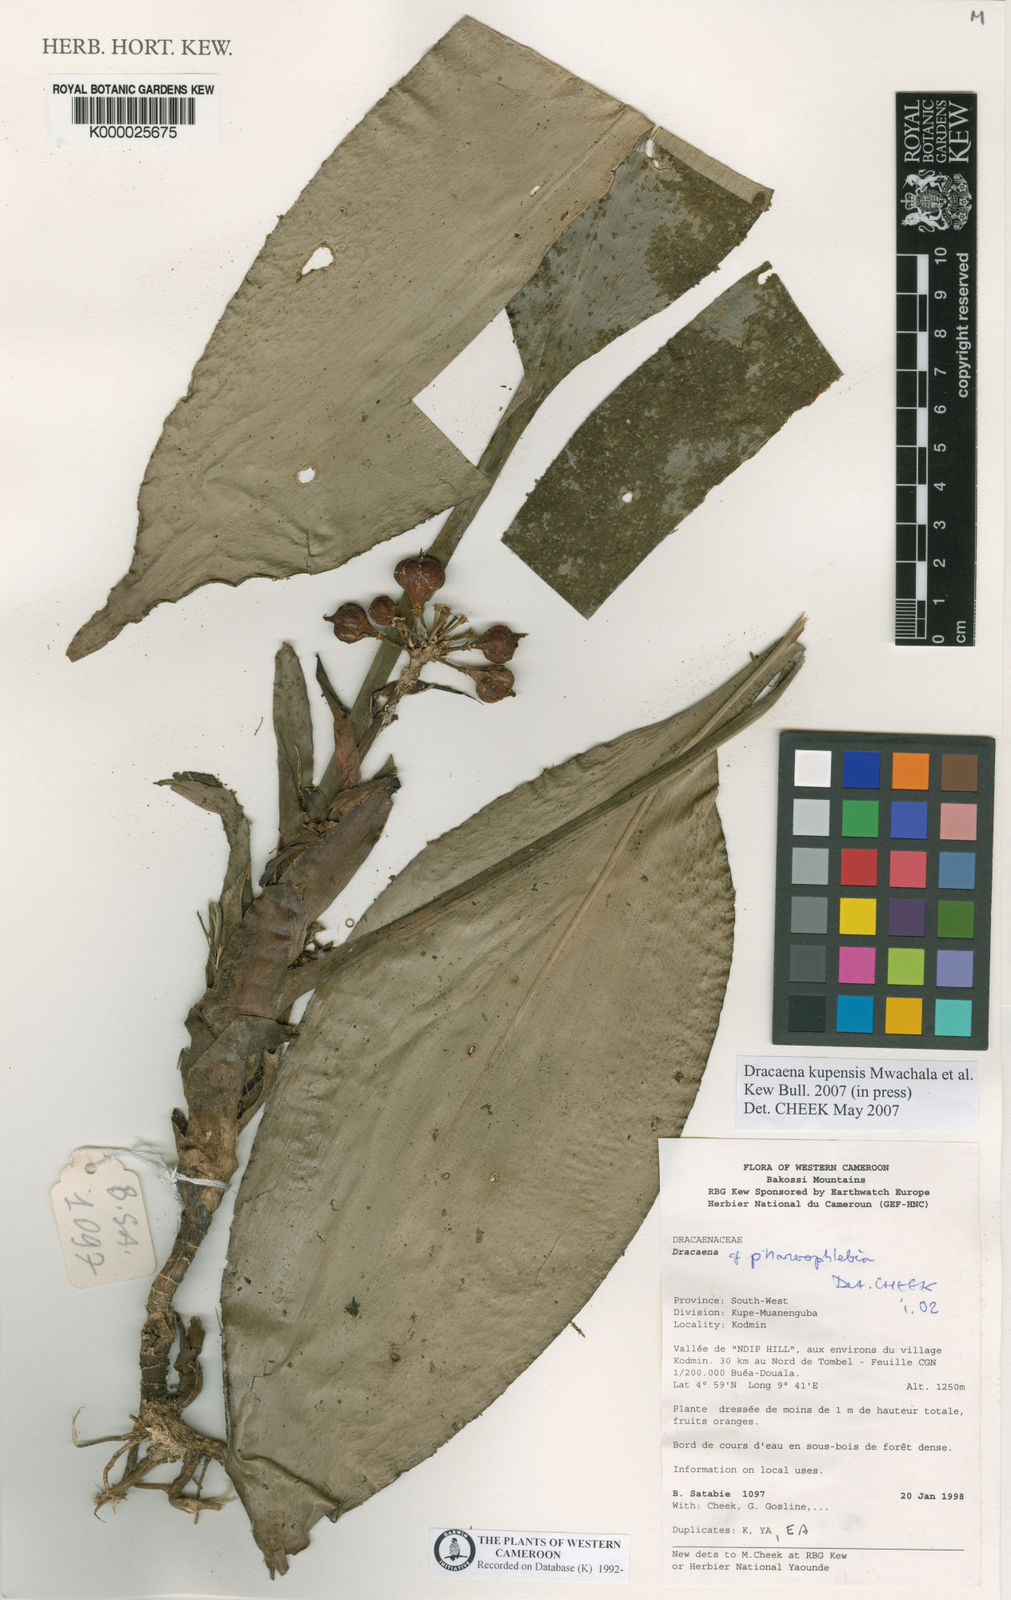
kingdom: Plantae
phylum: Tracheophyta
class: Liliopsida
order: Asparagales
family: Asparagaceae
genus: Dracaena
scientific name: Dracaena kupensis
